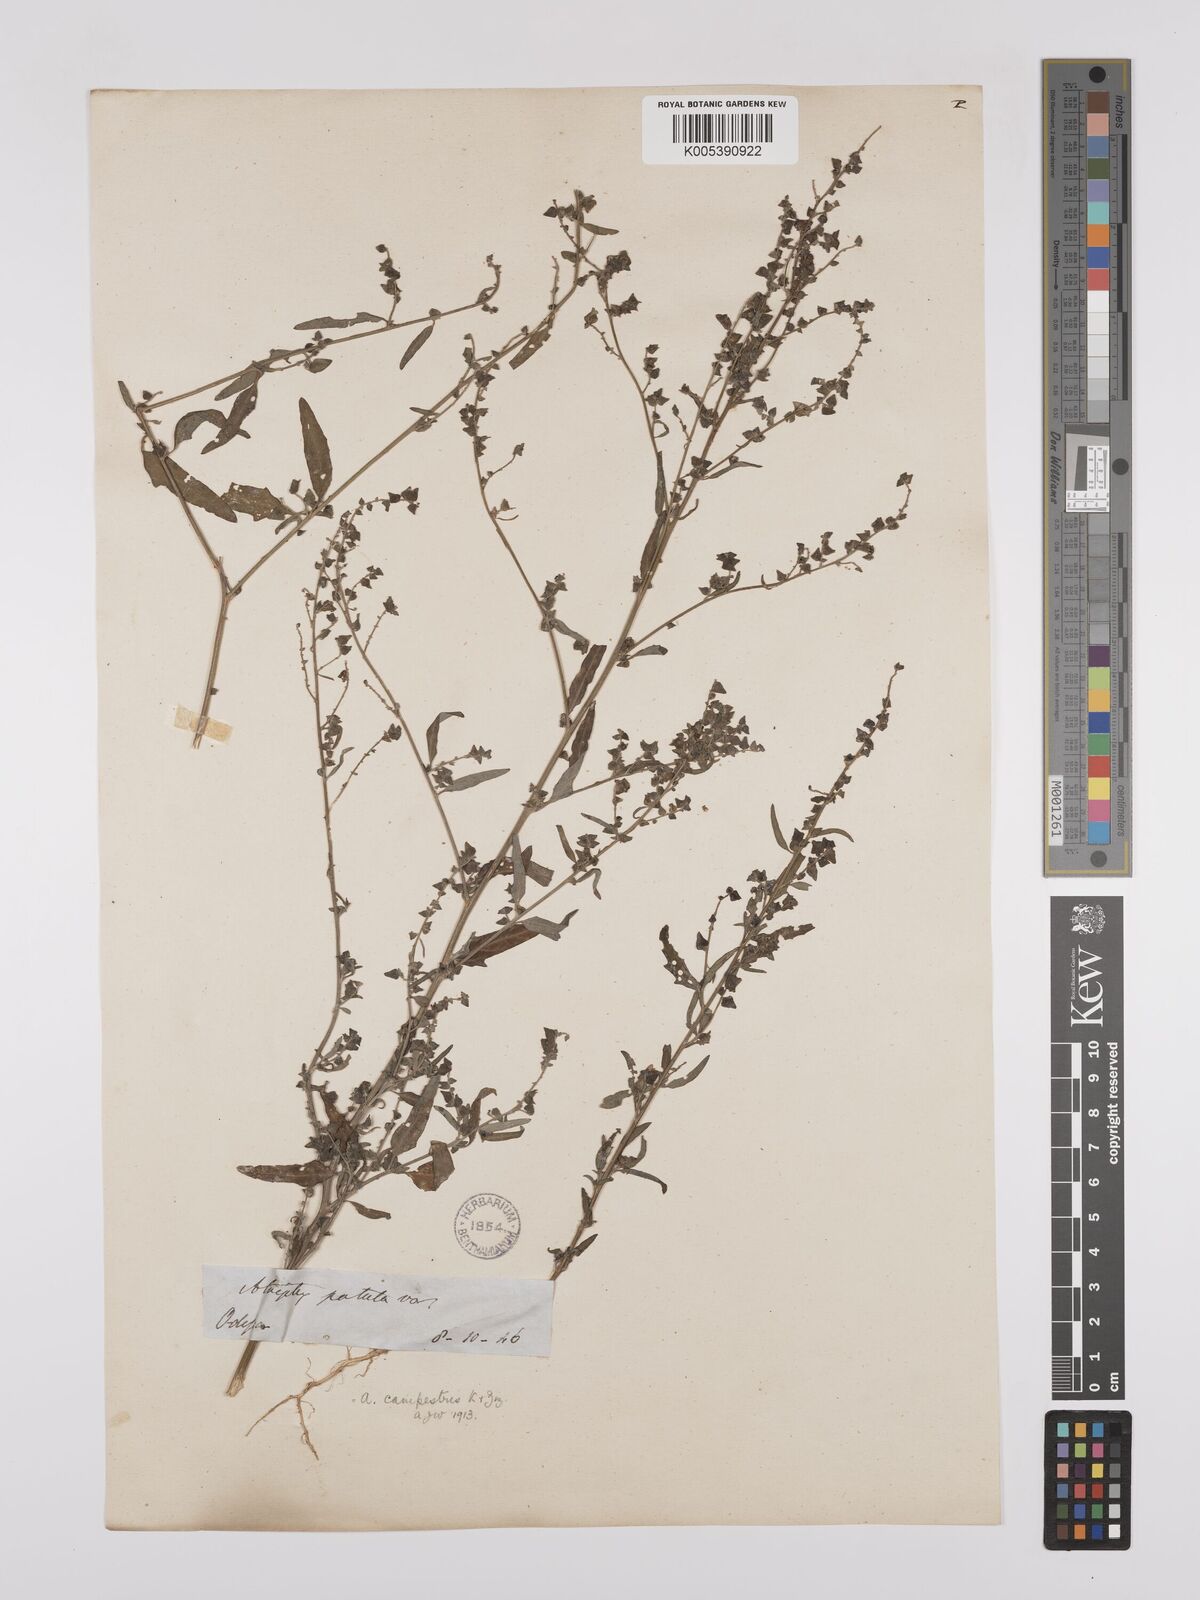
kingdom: Plantae
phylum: Tracheophyta
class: Magnoliopsida
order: Caryophyllales
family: Amaranthaceae
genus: Atriplex
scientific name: Atriplex
